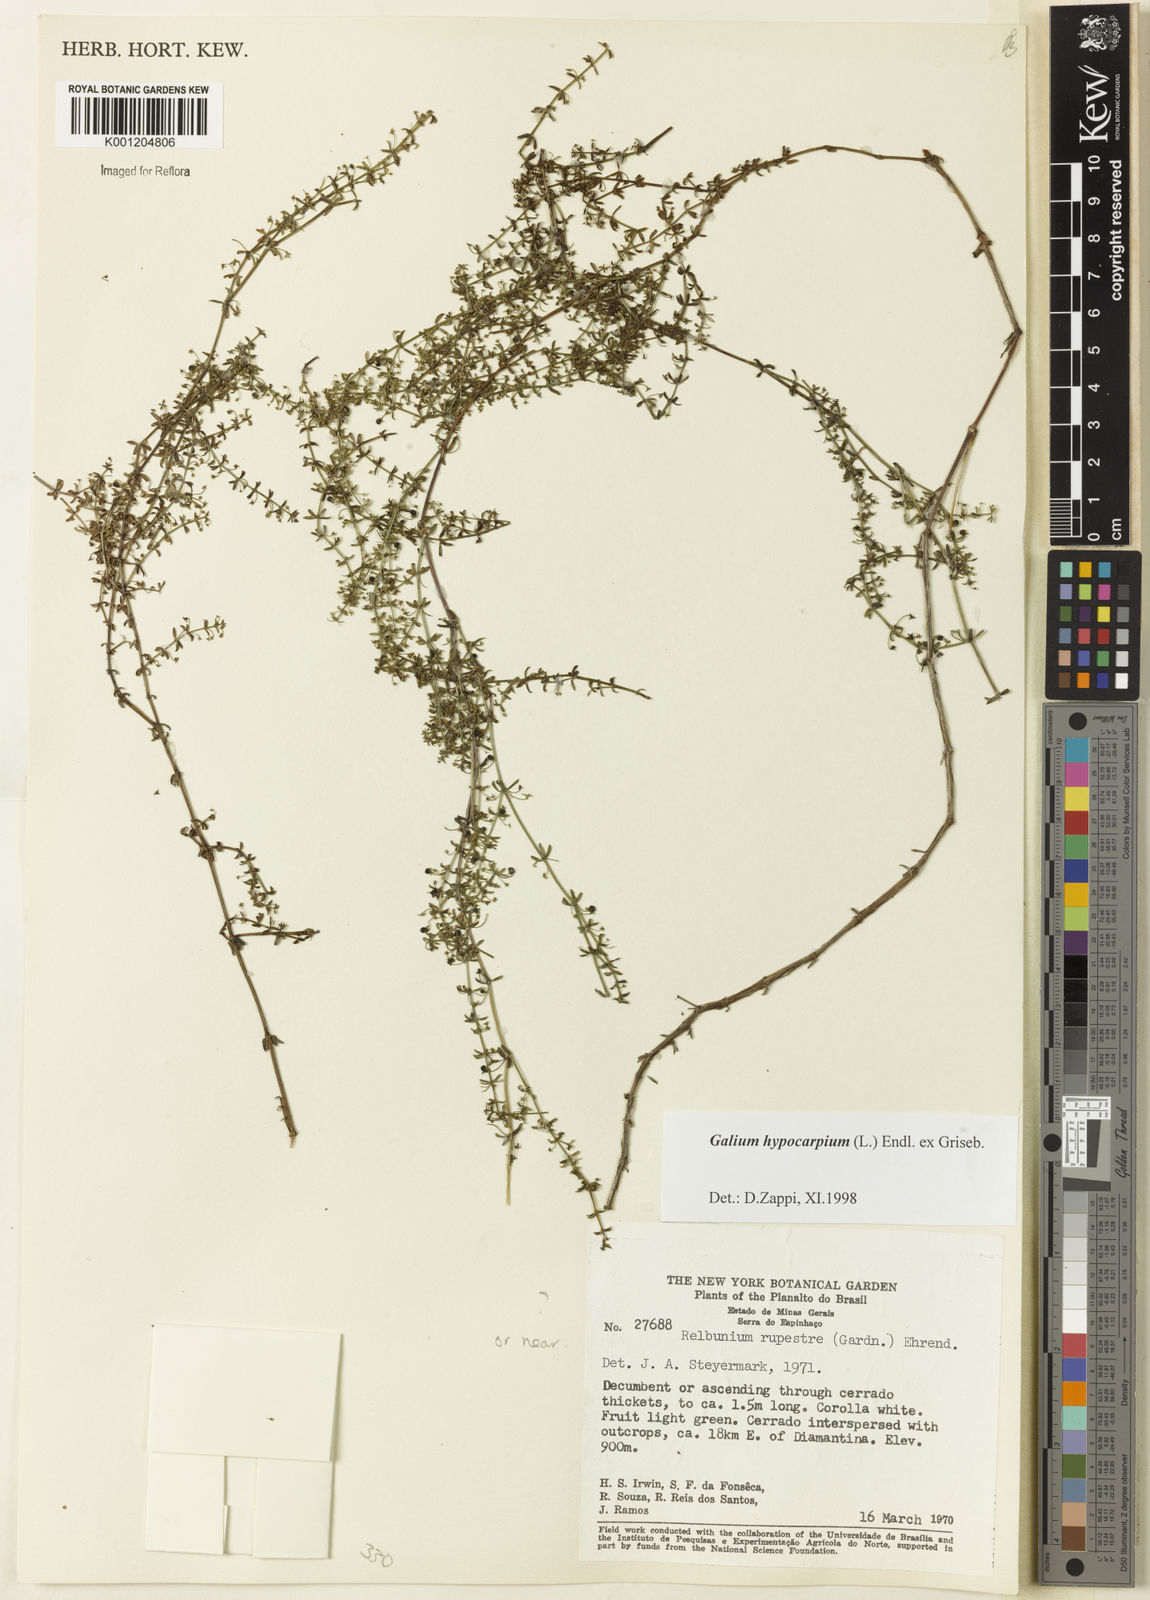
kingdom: Plantae
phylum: Tracheophyta
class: Magnoliopsida
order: Gentianales
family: Rubiaceae
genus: Galium
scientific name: Galium hypocarpium
